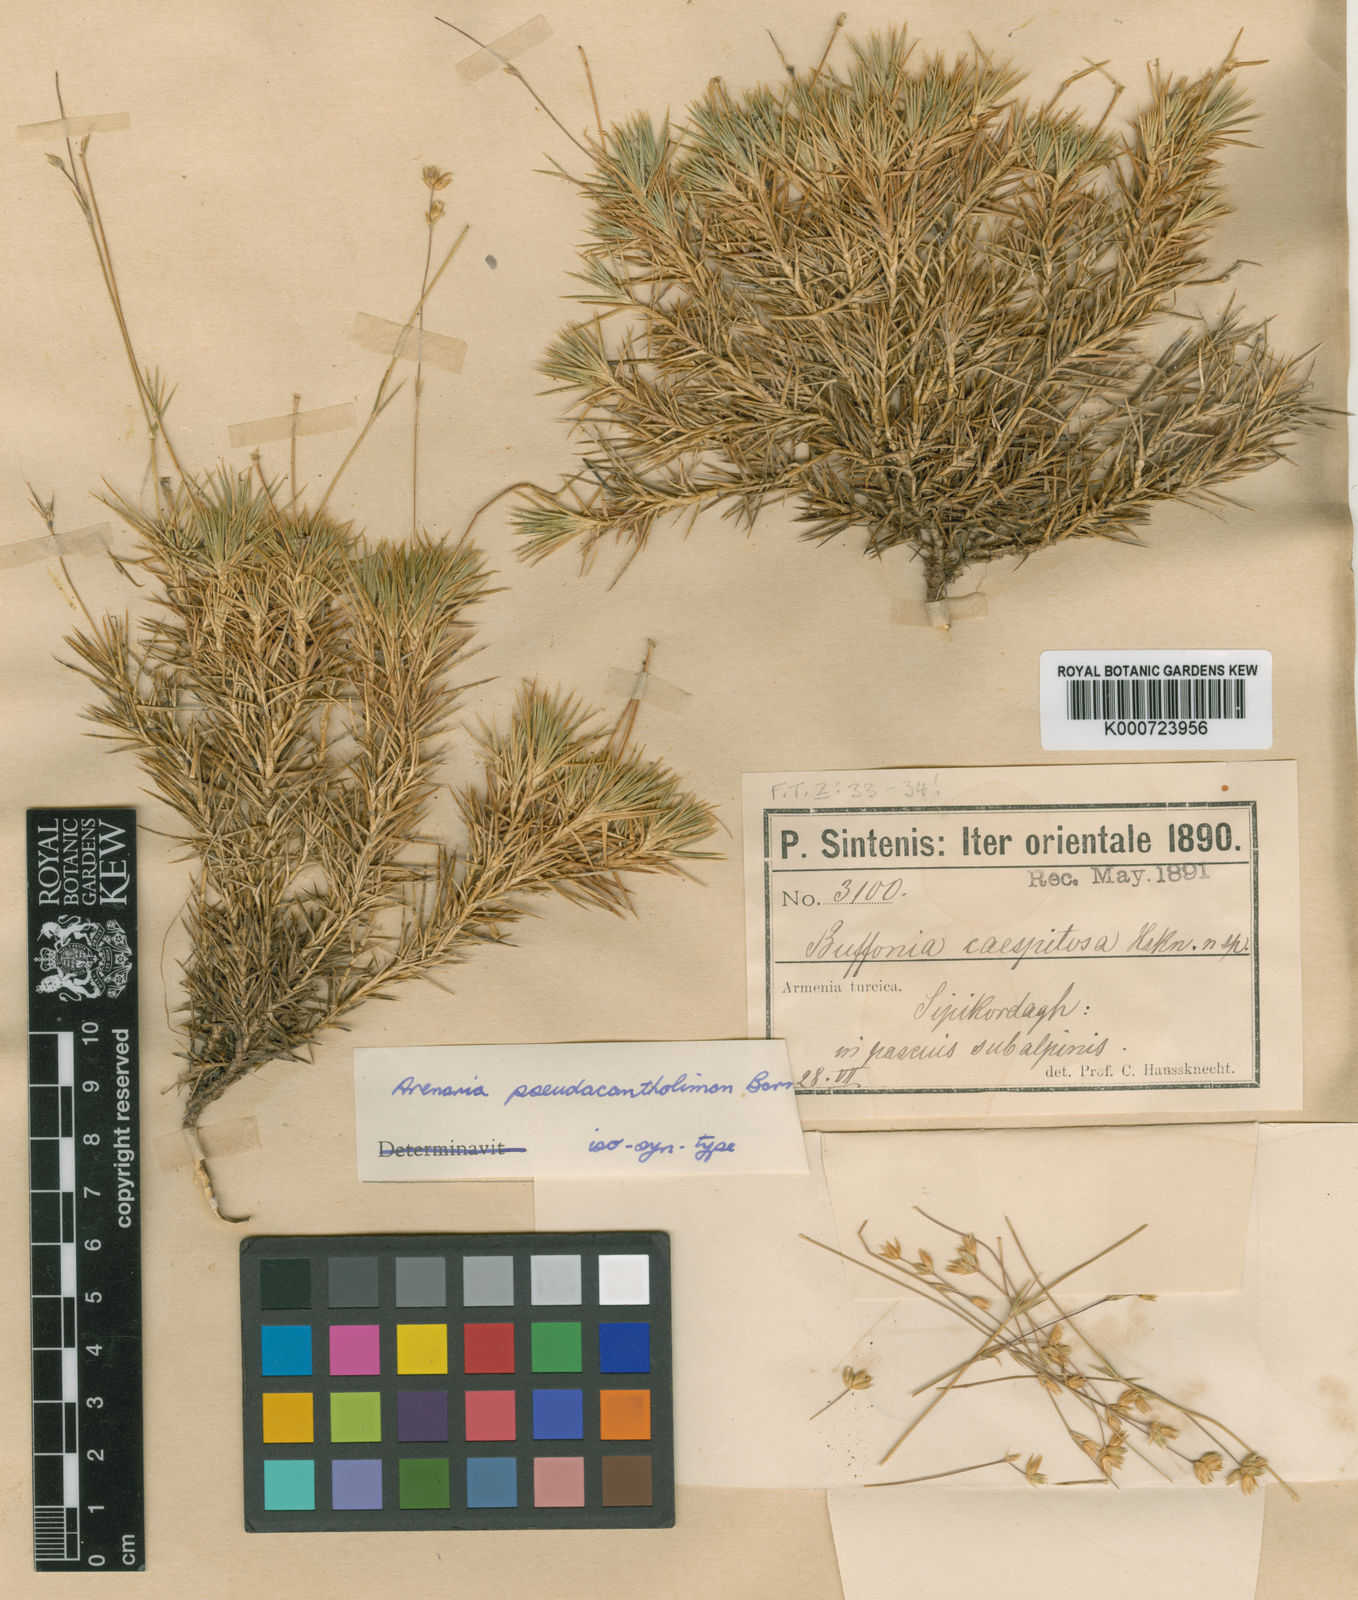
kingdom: Plantae
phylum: Tracheophyta
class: Magnoliopsida
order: Caryophyllales
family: Caryophyllaceae
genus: Eremogone
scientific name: Eremogone pseudacantholimon
